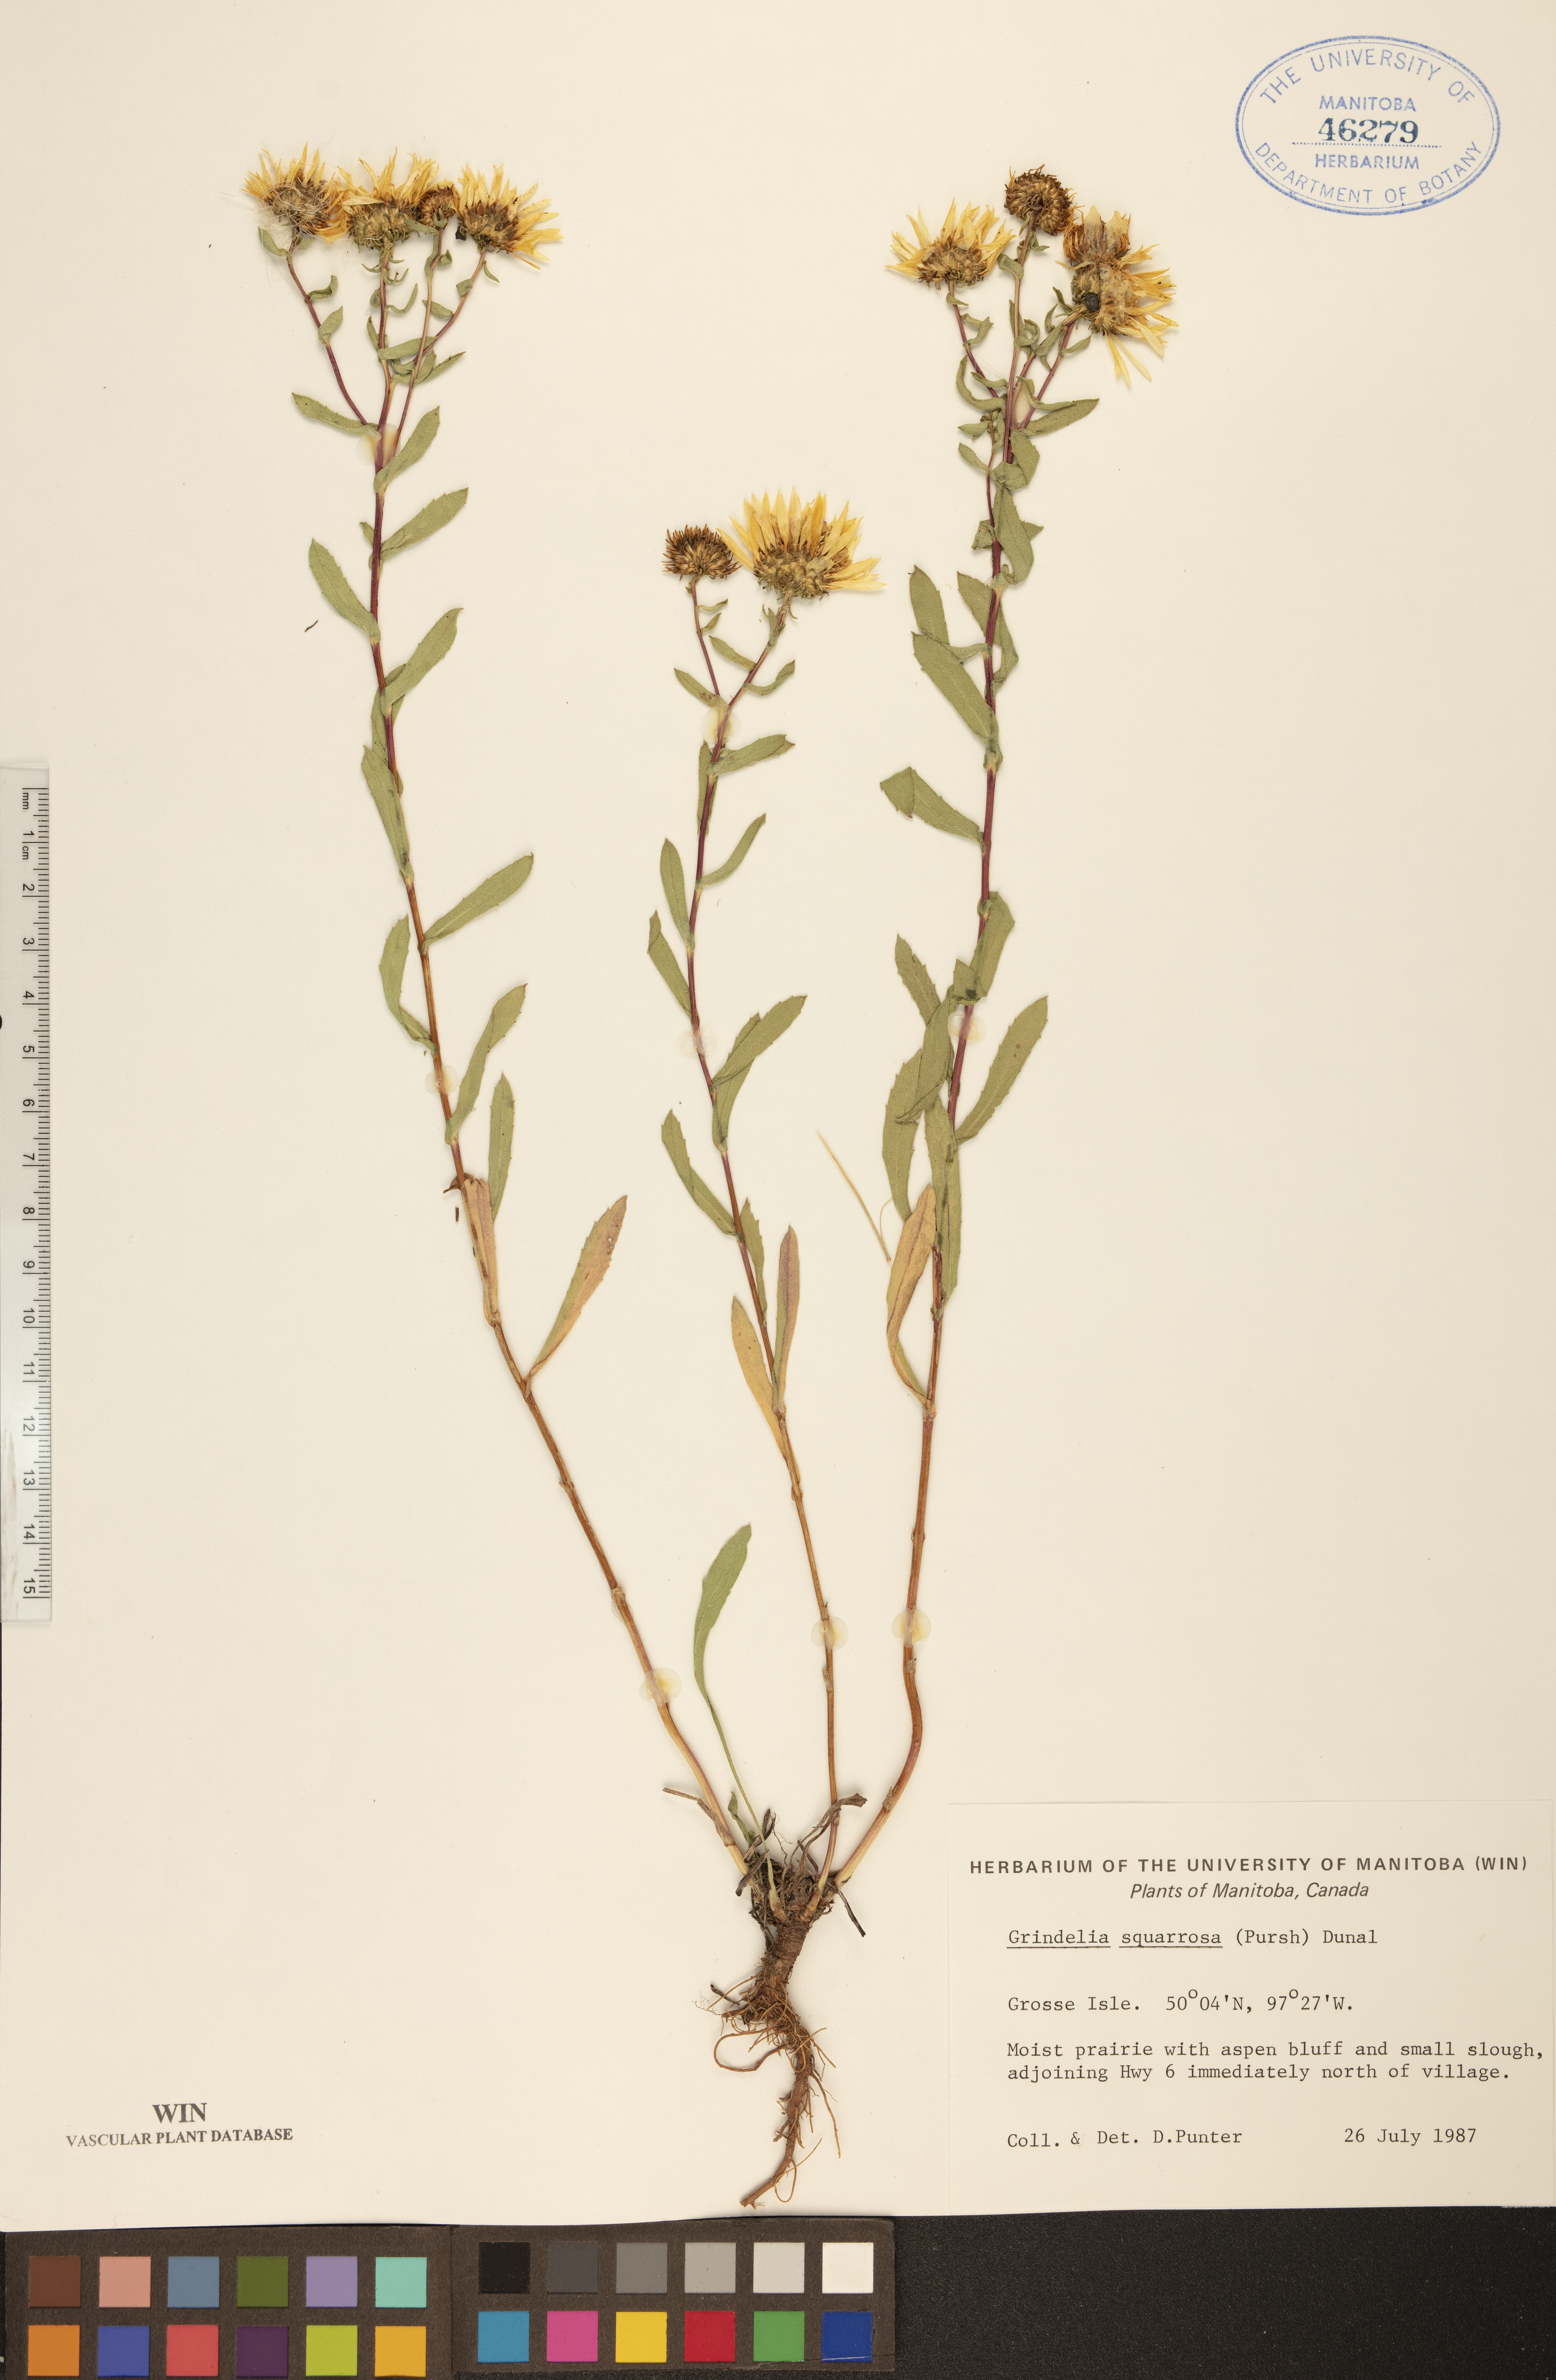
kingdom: Plantae
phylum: Tracheophyta
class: Magnoliopsida
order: Asterales
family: Asteraceae
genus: Grindelia
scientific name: Grindelia squarrosa
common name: Curly-cup gumweed
